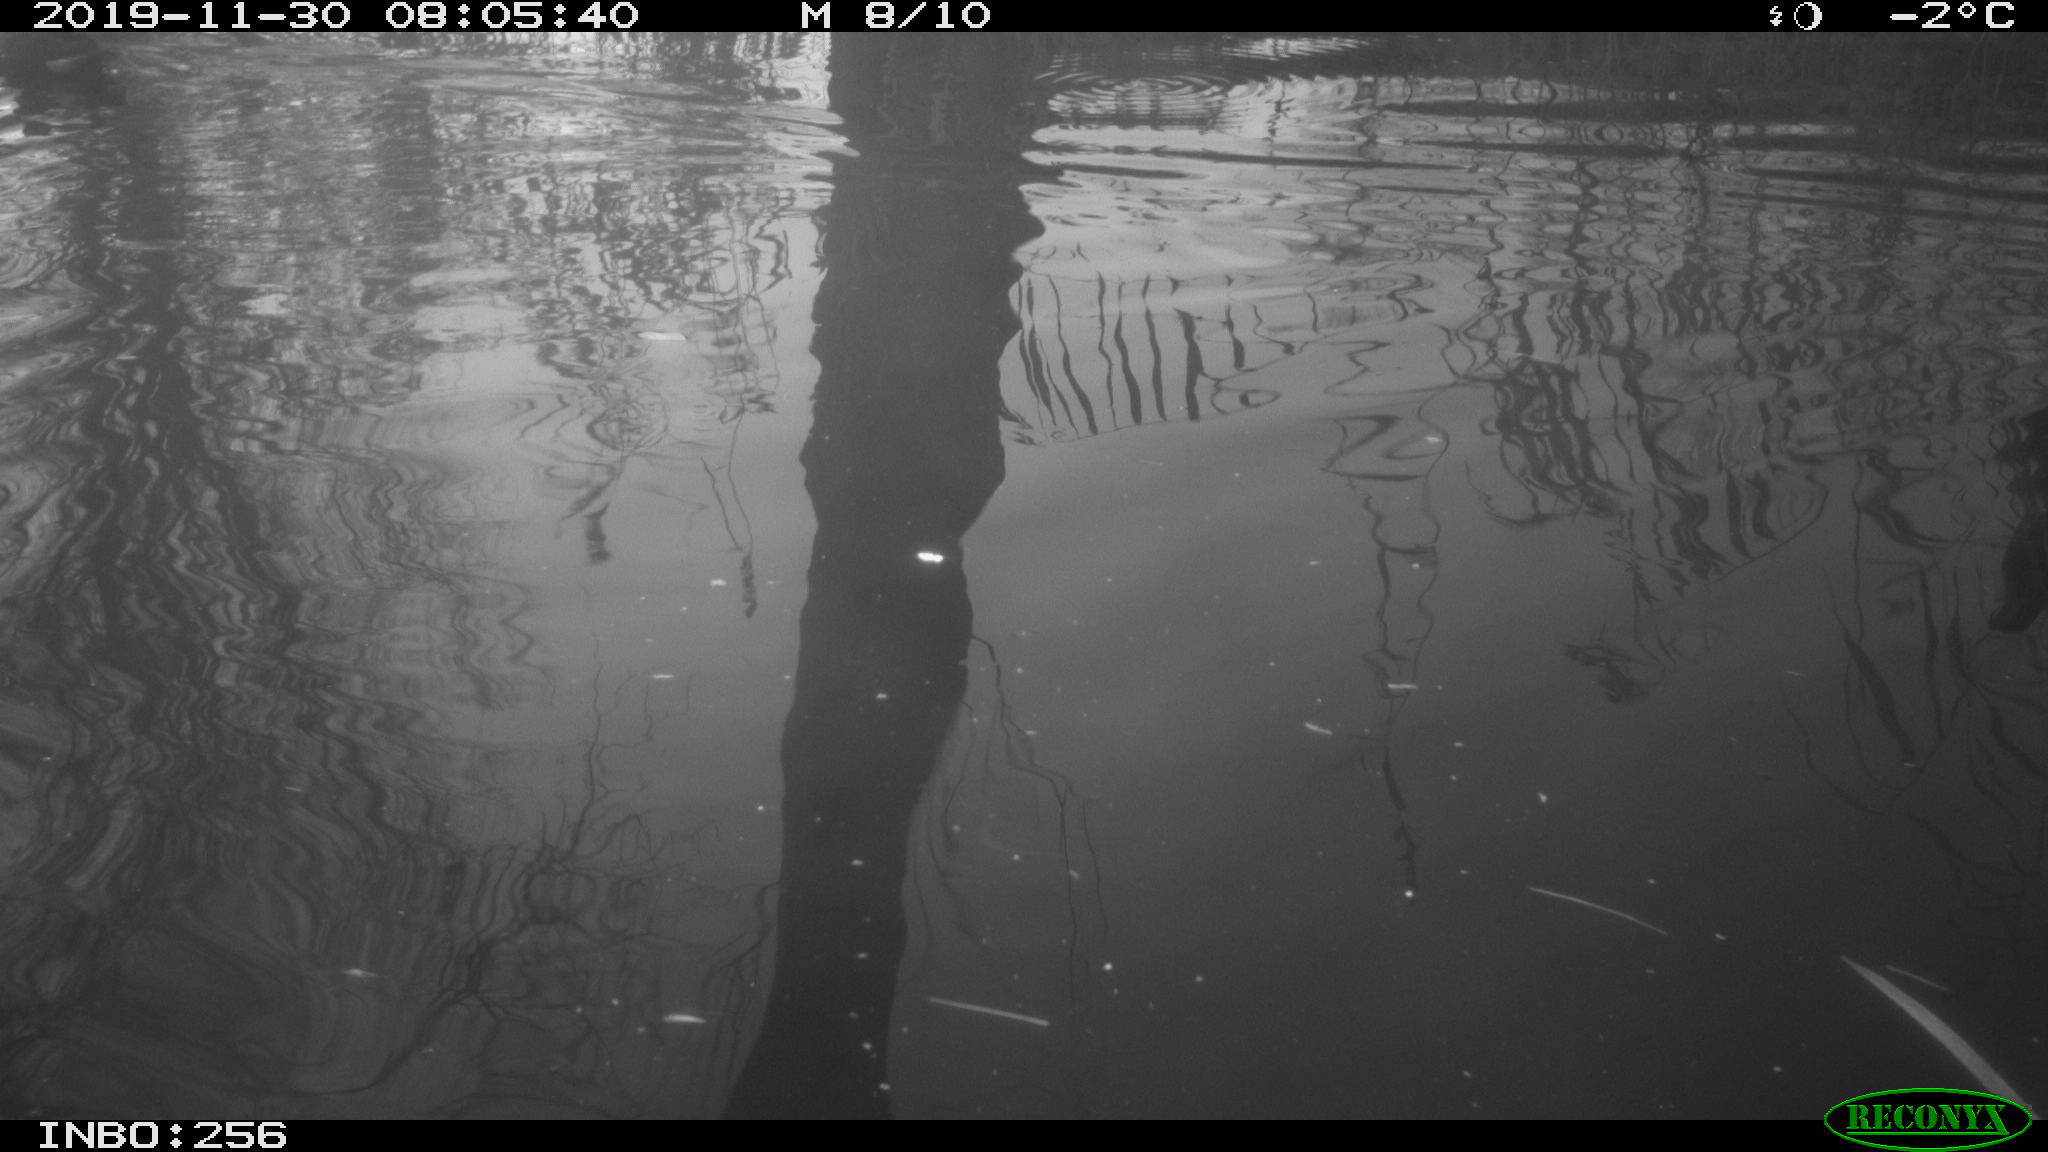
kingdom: Animalia
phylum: Chordata
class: Aves
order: Gruiformes
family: Rallidae
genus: Gallinula
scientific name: Gallinula chloropus
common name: Common moorhen
